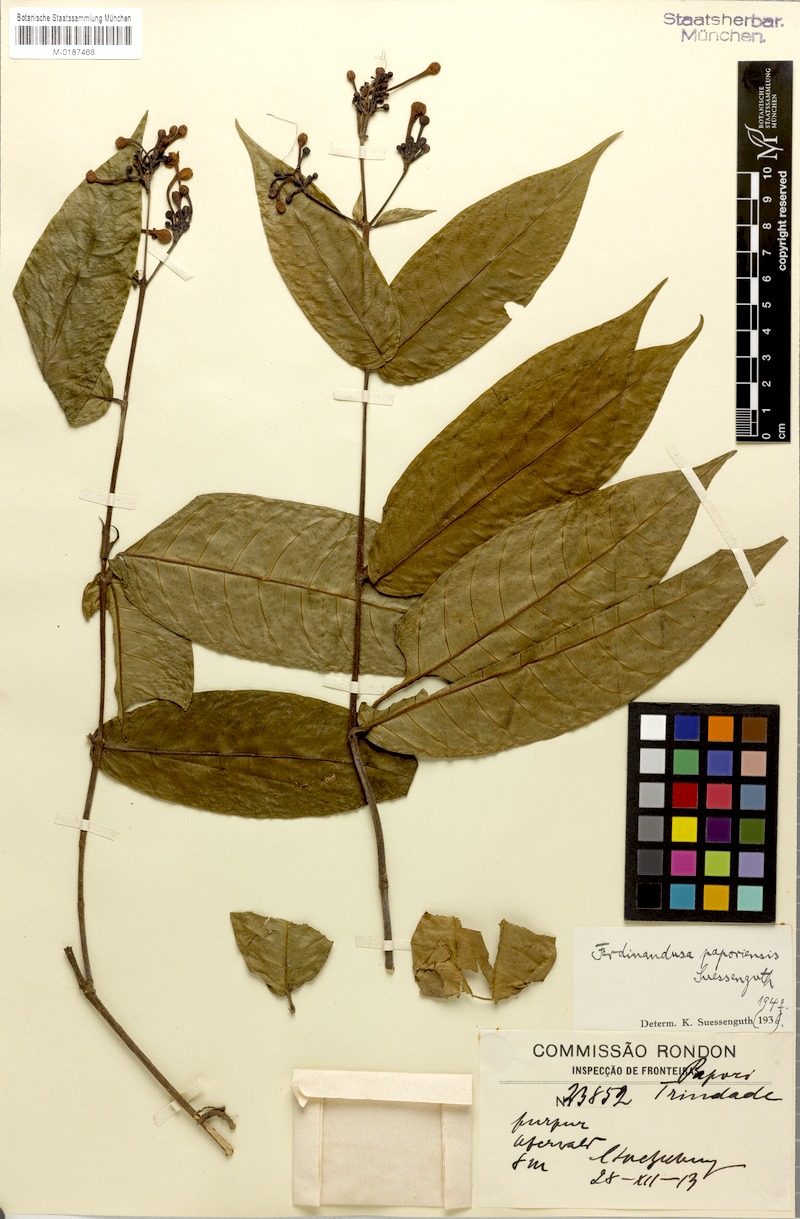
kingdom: Plantae
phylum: Tracheophyta
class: Magnoliopsida
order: Gentianales
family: Rubiaceae
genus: Ferdinandusa
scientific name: Ferdinandusa paporiensis
